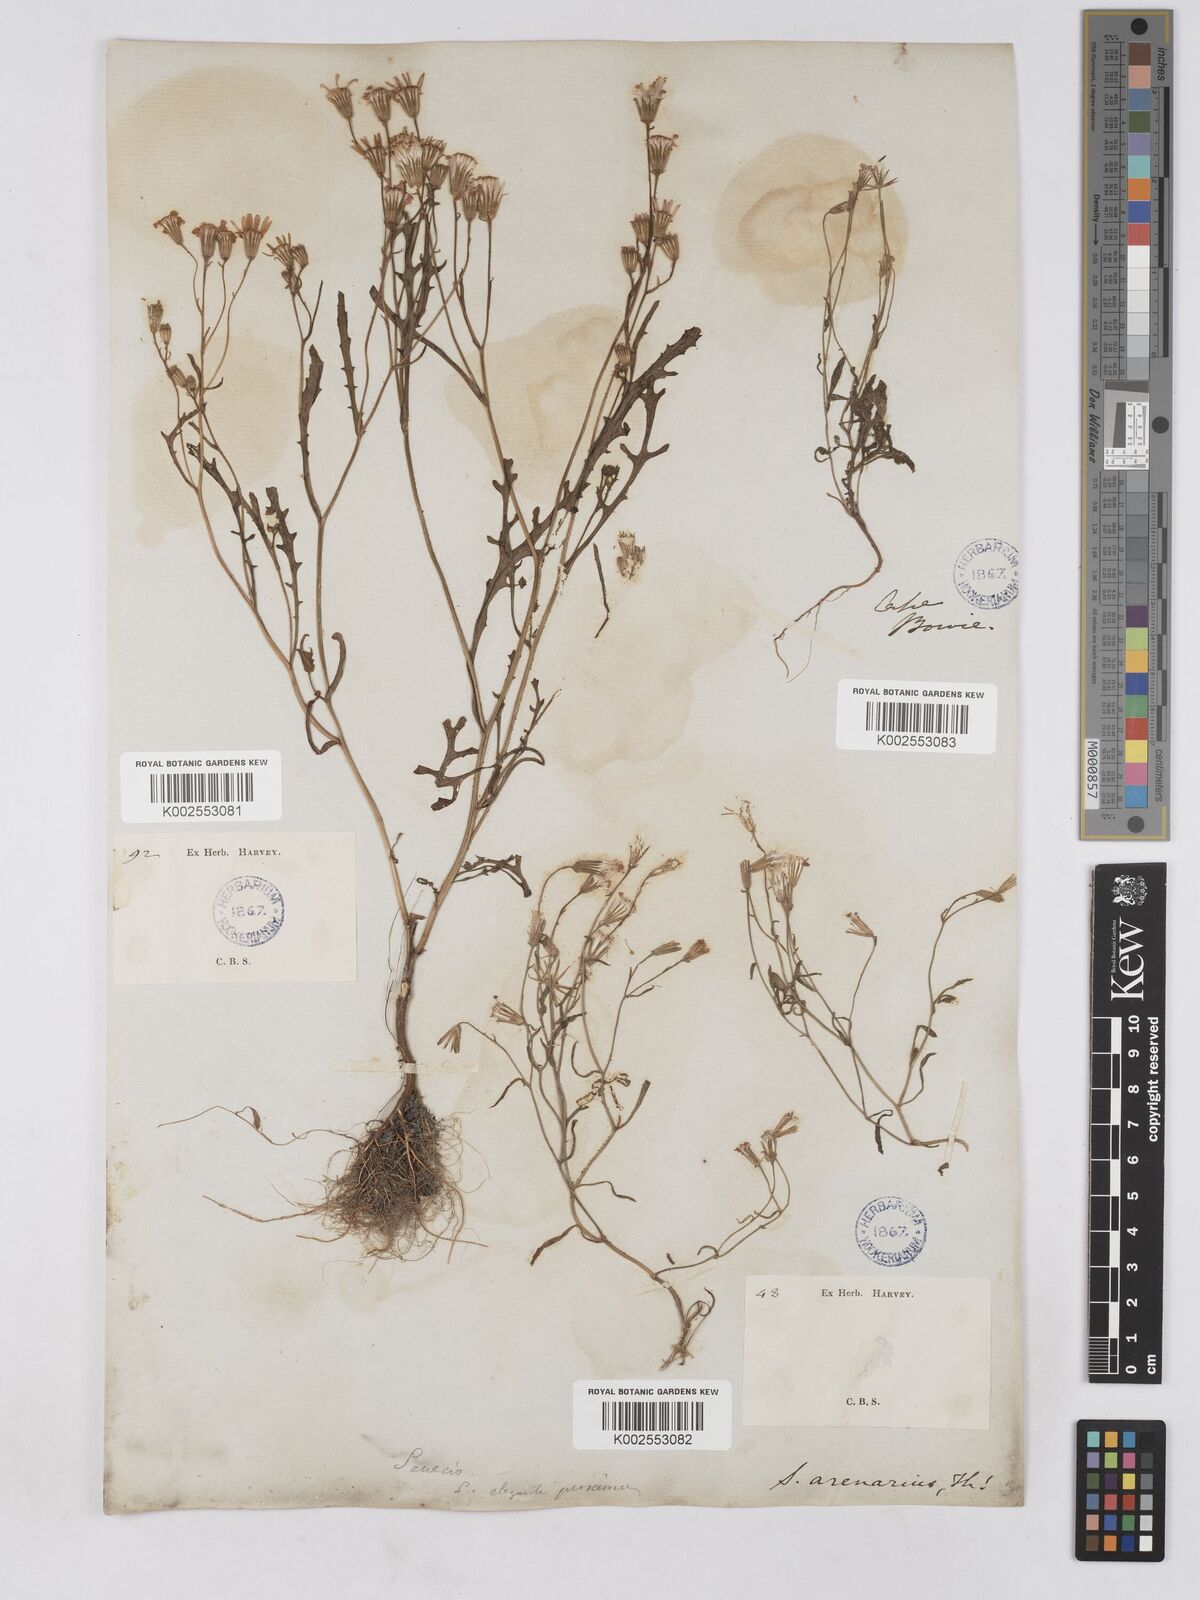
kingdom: Plantae
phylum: Tracheophyta
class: Magnoliopsida
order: Asterales
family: Asteraceae
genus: Senecio
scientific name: Senecio arenarius
